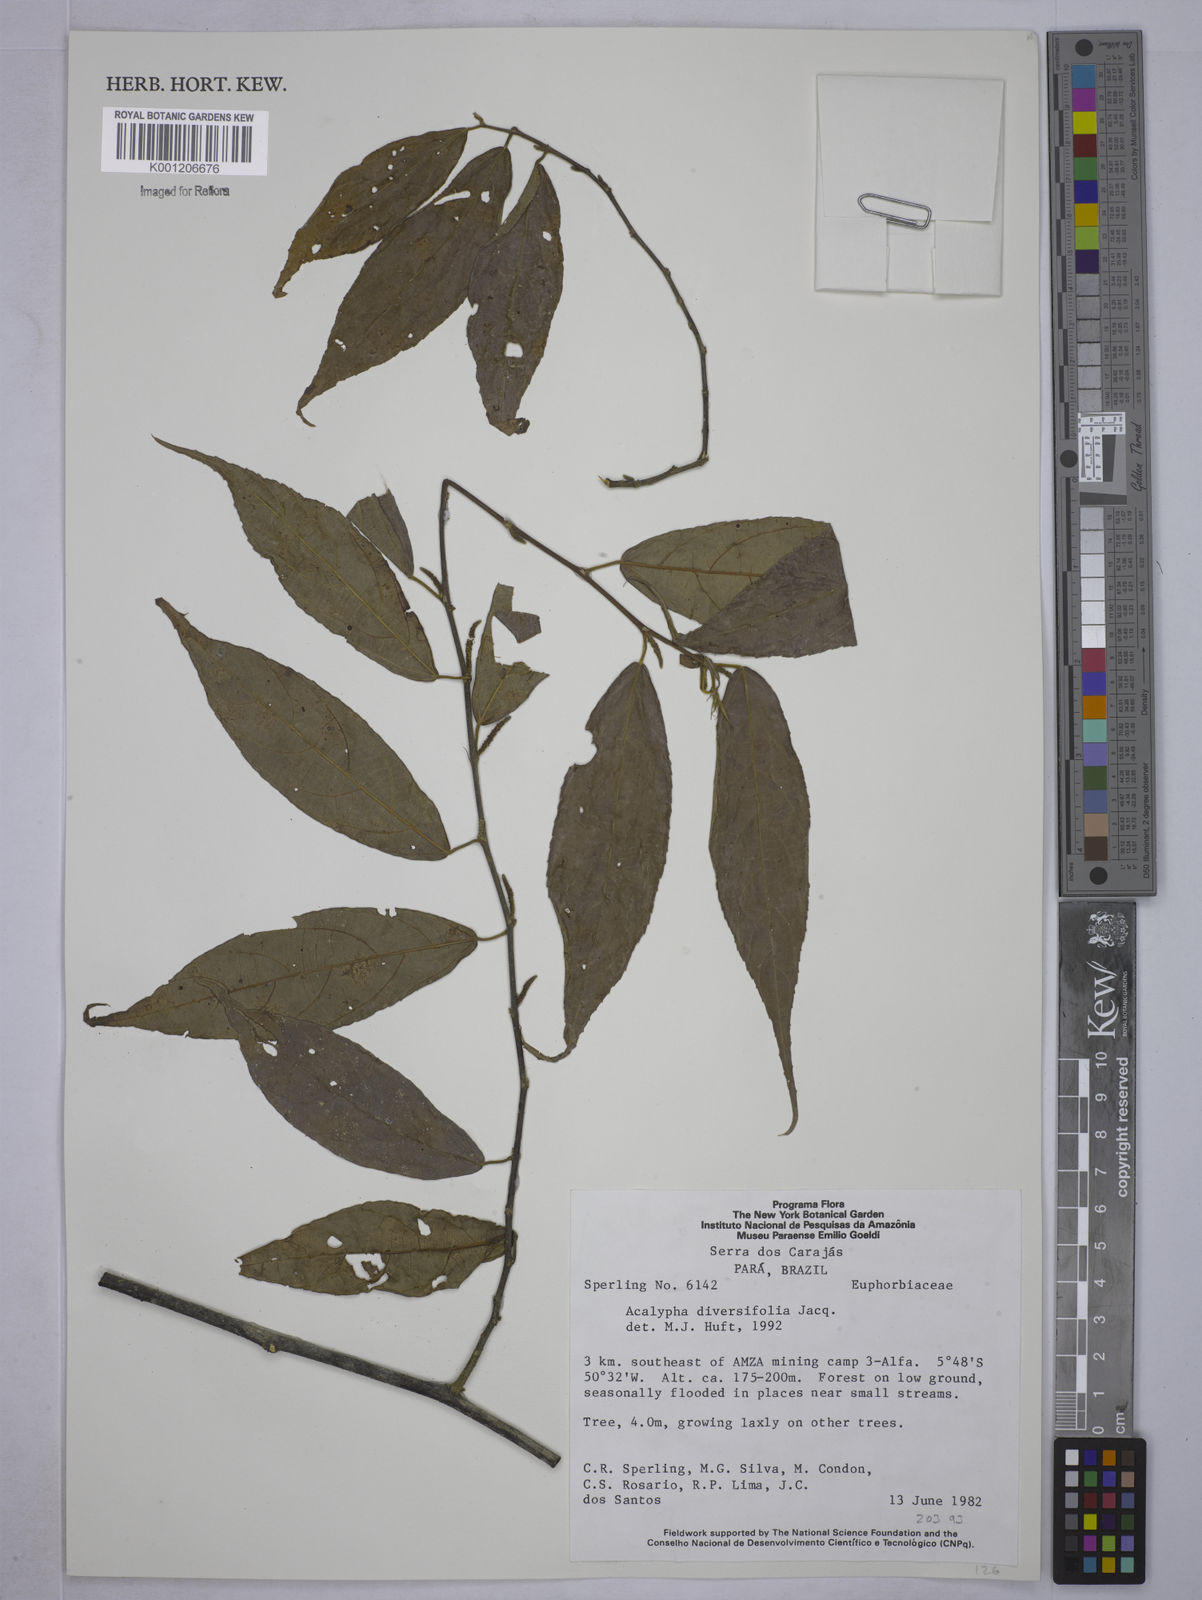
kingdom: Plantae
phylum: Tracheophyta
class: Magnoliopsida
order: Malpighiales
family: Euphorbiaceae
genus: Acalypha
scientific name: Acalypha diversifolia
